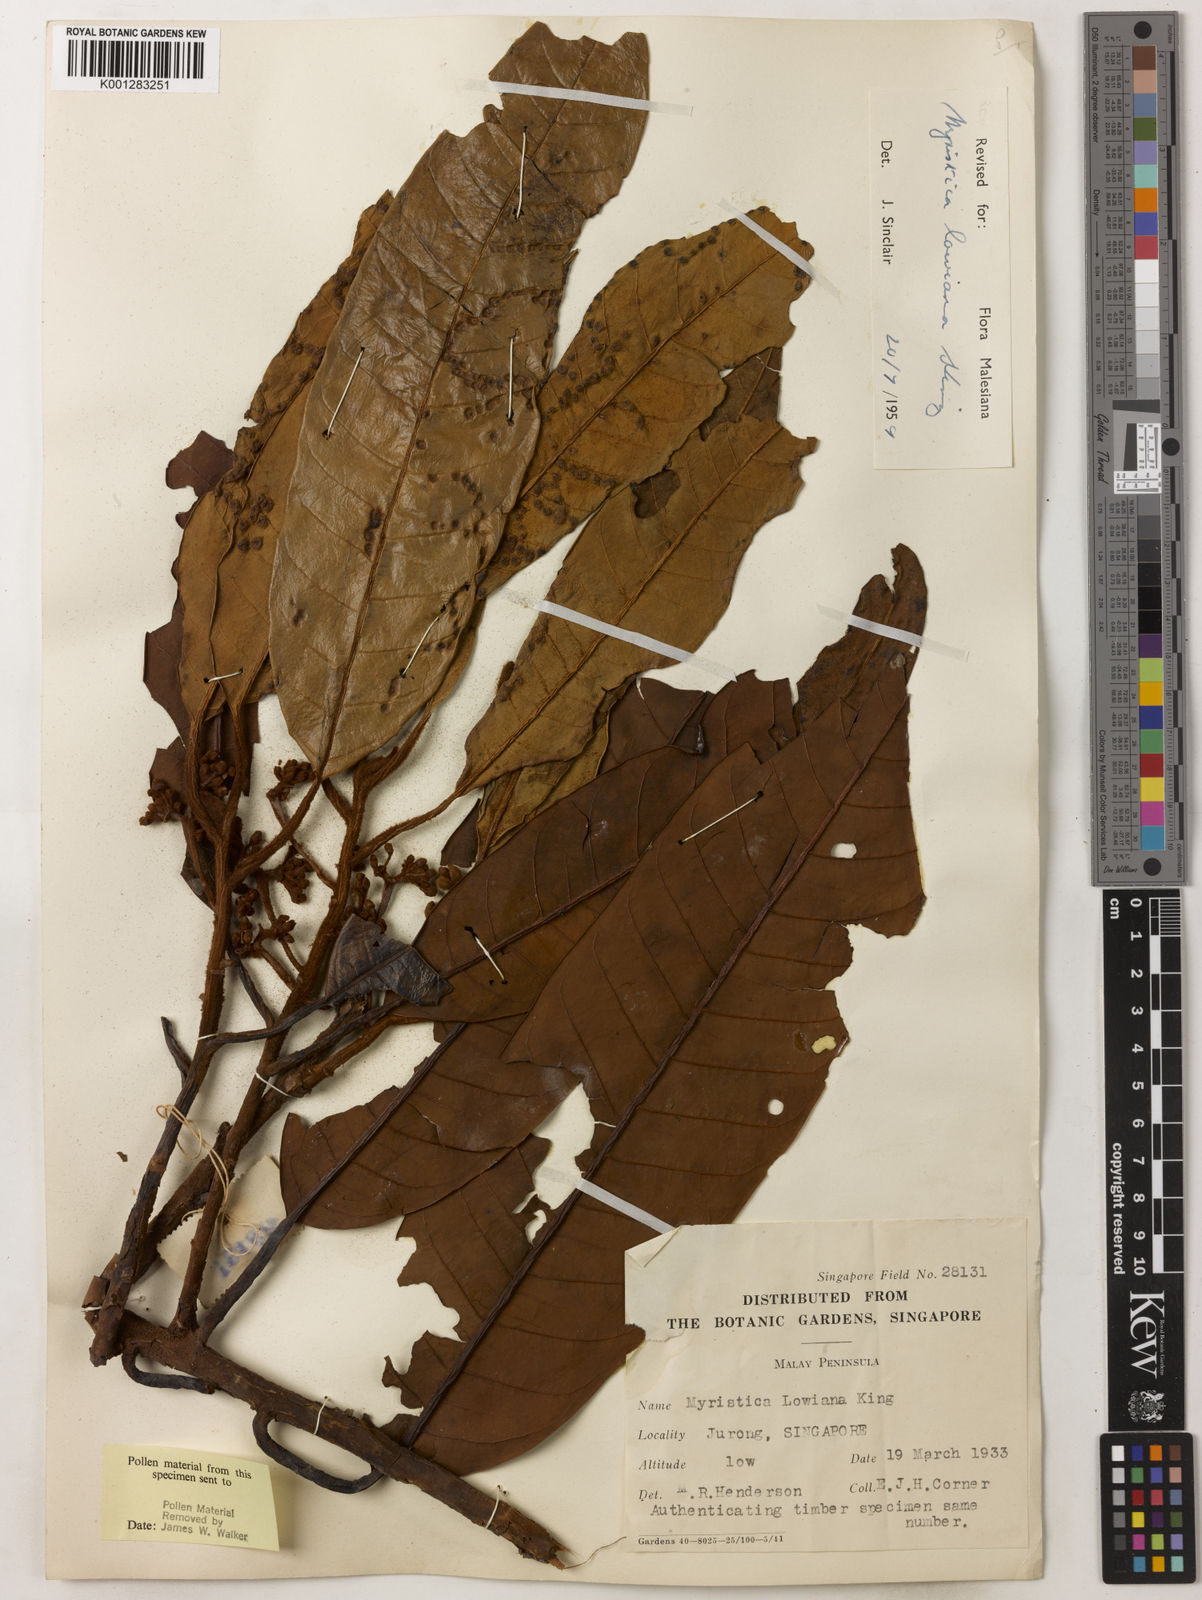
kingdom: Plantae
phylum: Tracheophyta
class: Magnoliopsida
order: Magnoliales
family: Myristicaceae
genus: Myristica
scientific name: Myristica lowiana
